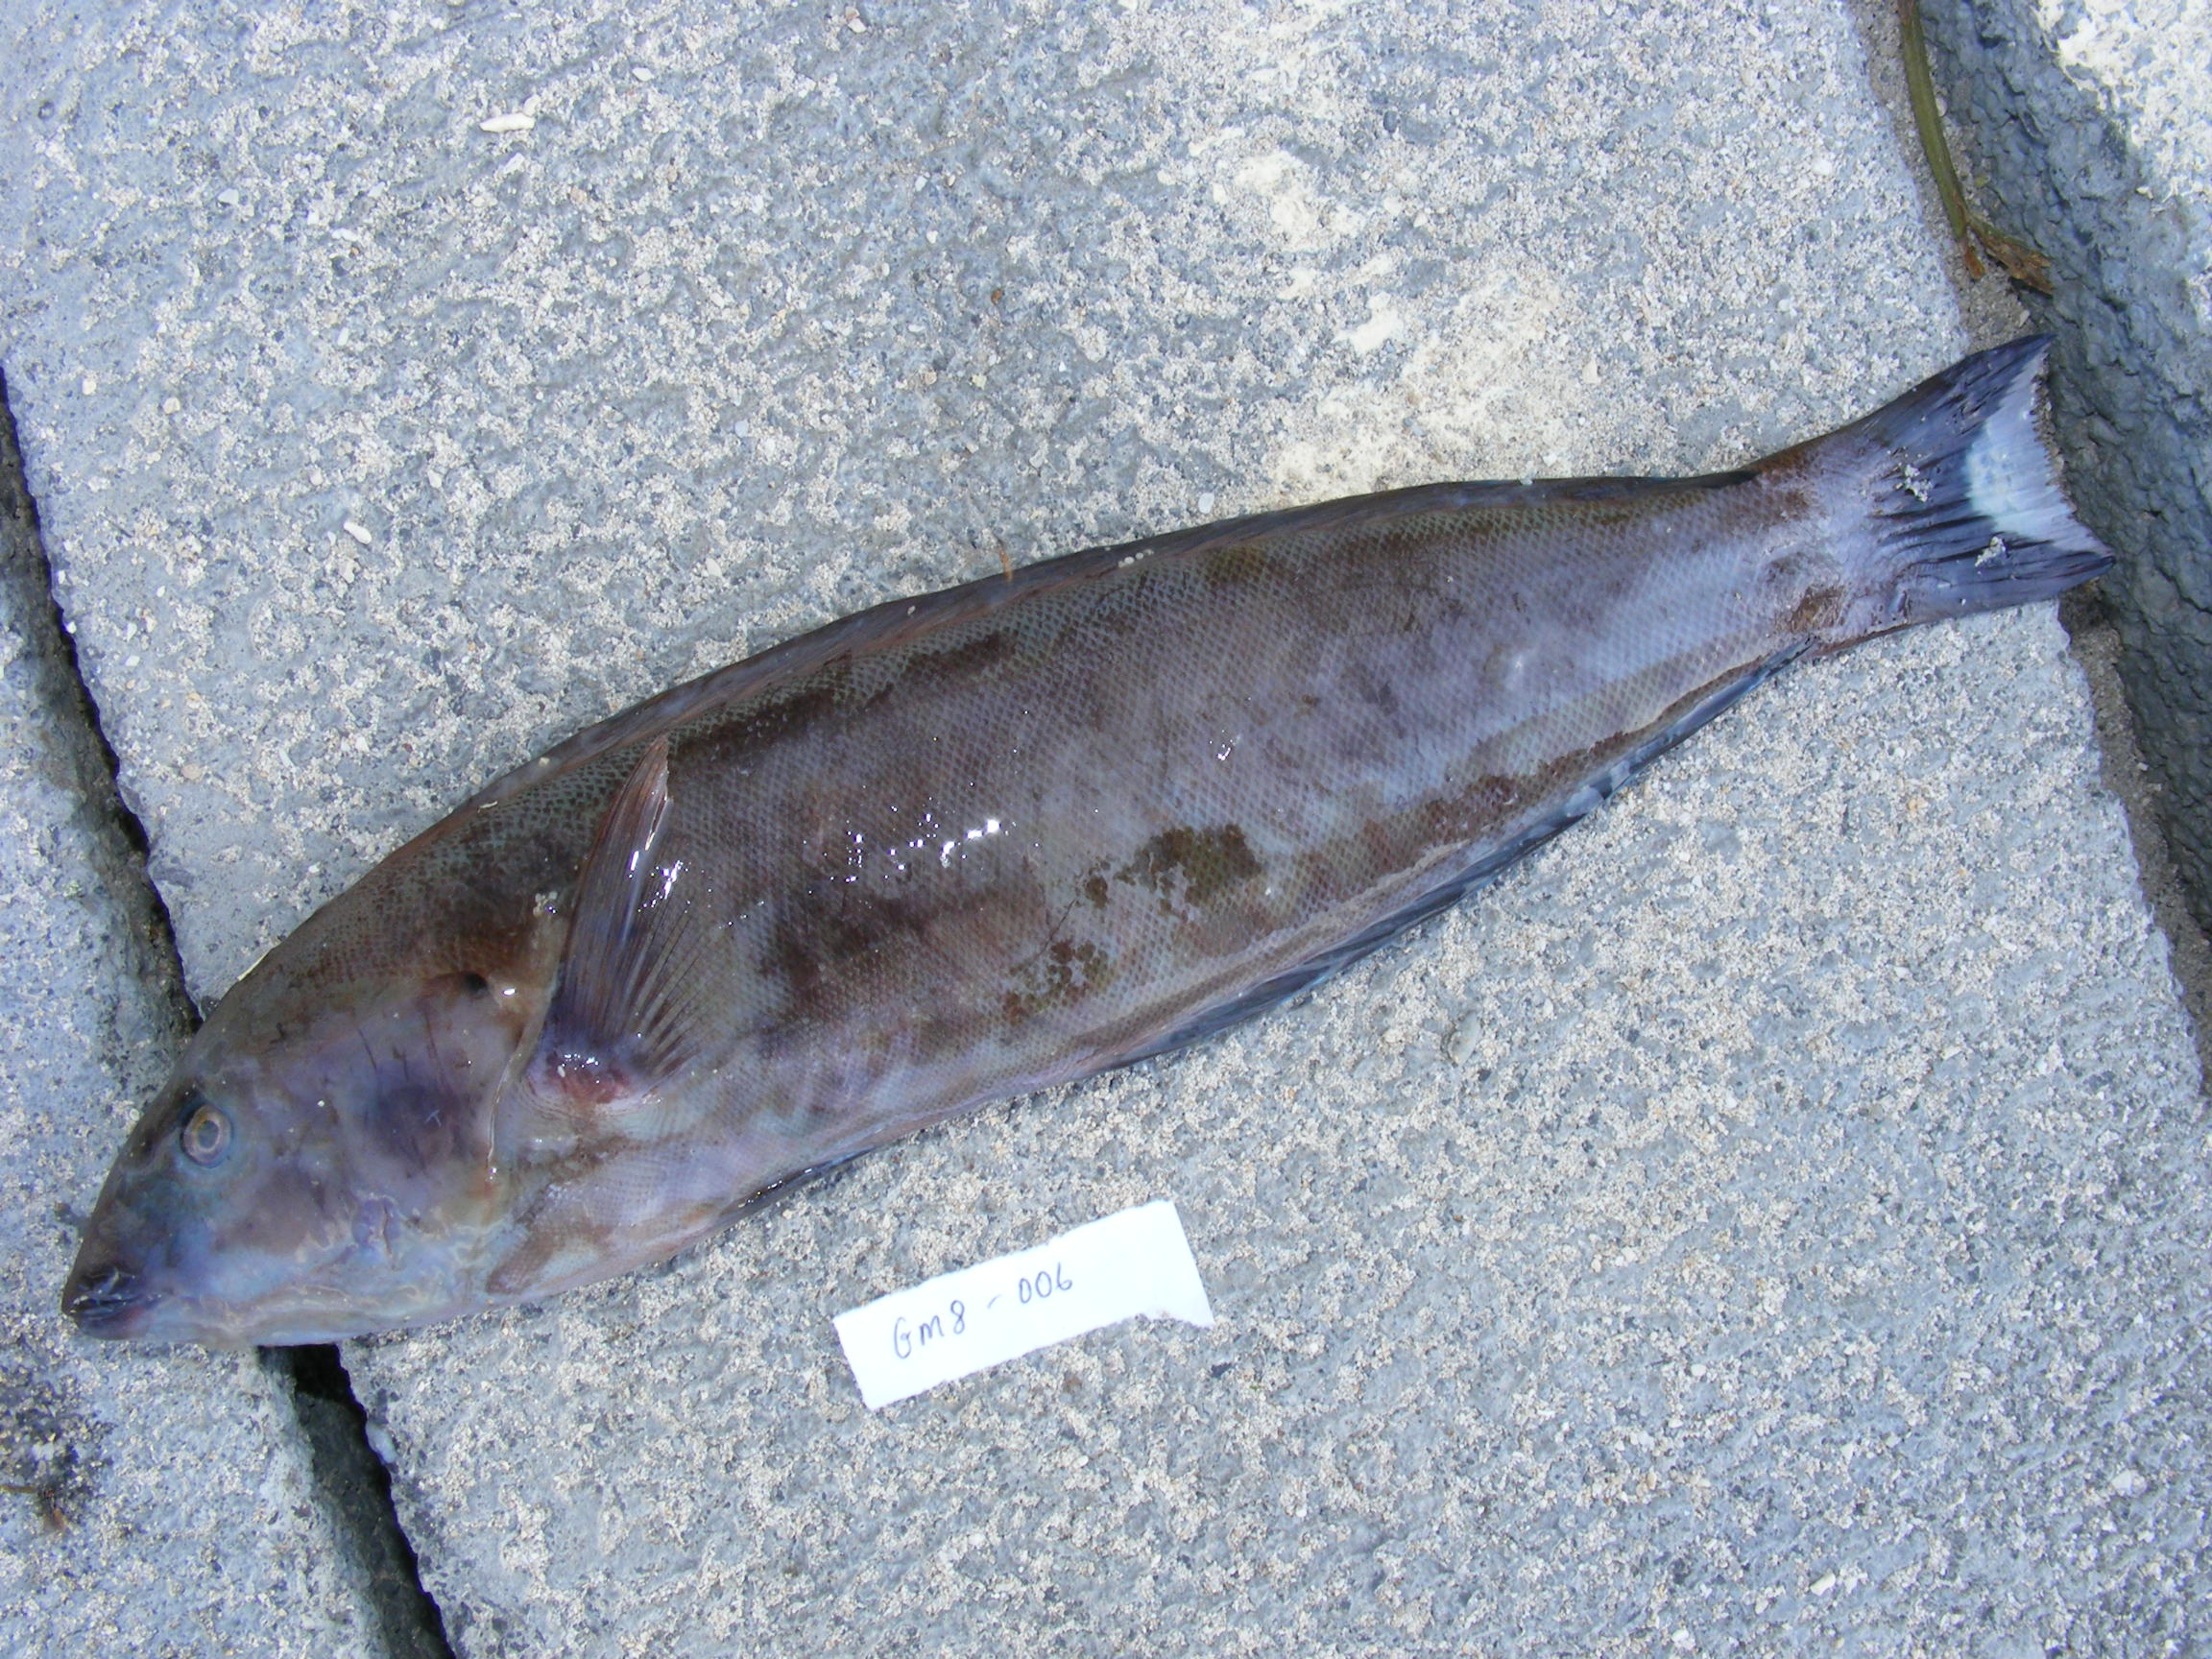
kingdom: Animalia
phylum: Chordata
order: Perciformes
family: Labridae
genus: Hologymnosus
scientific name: Hologymnosus annulatus
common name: Ring wrasse
